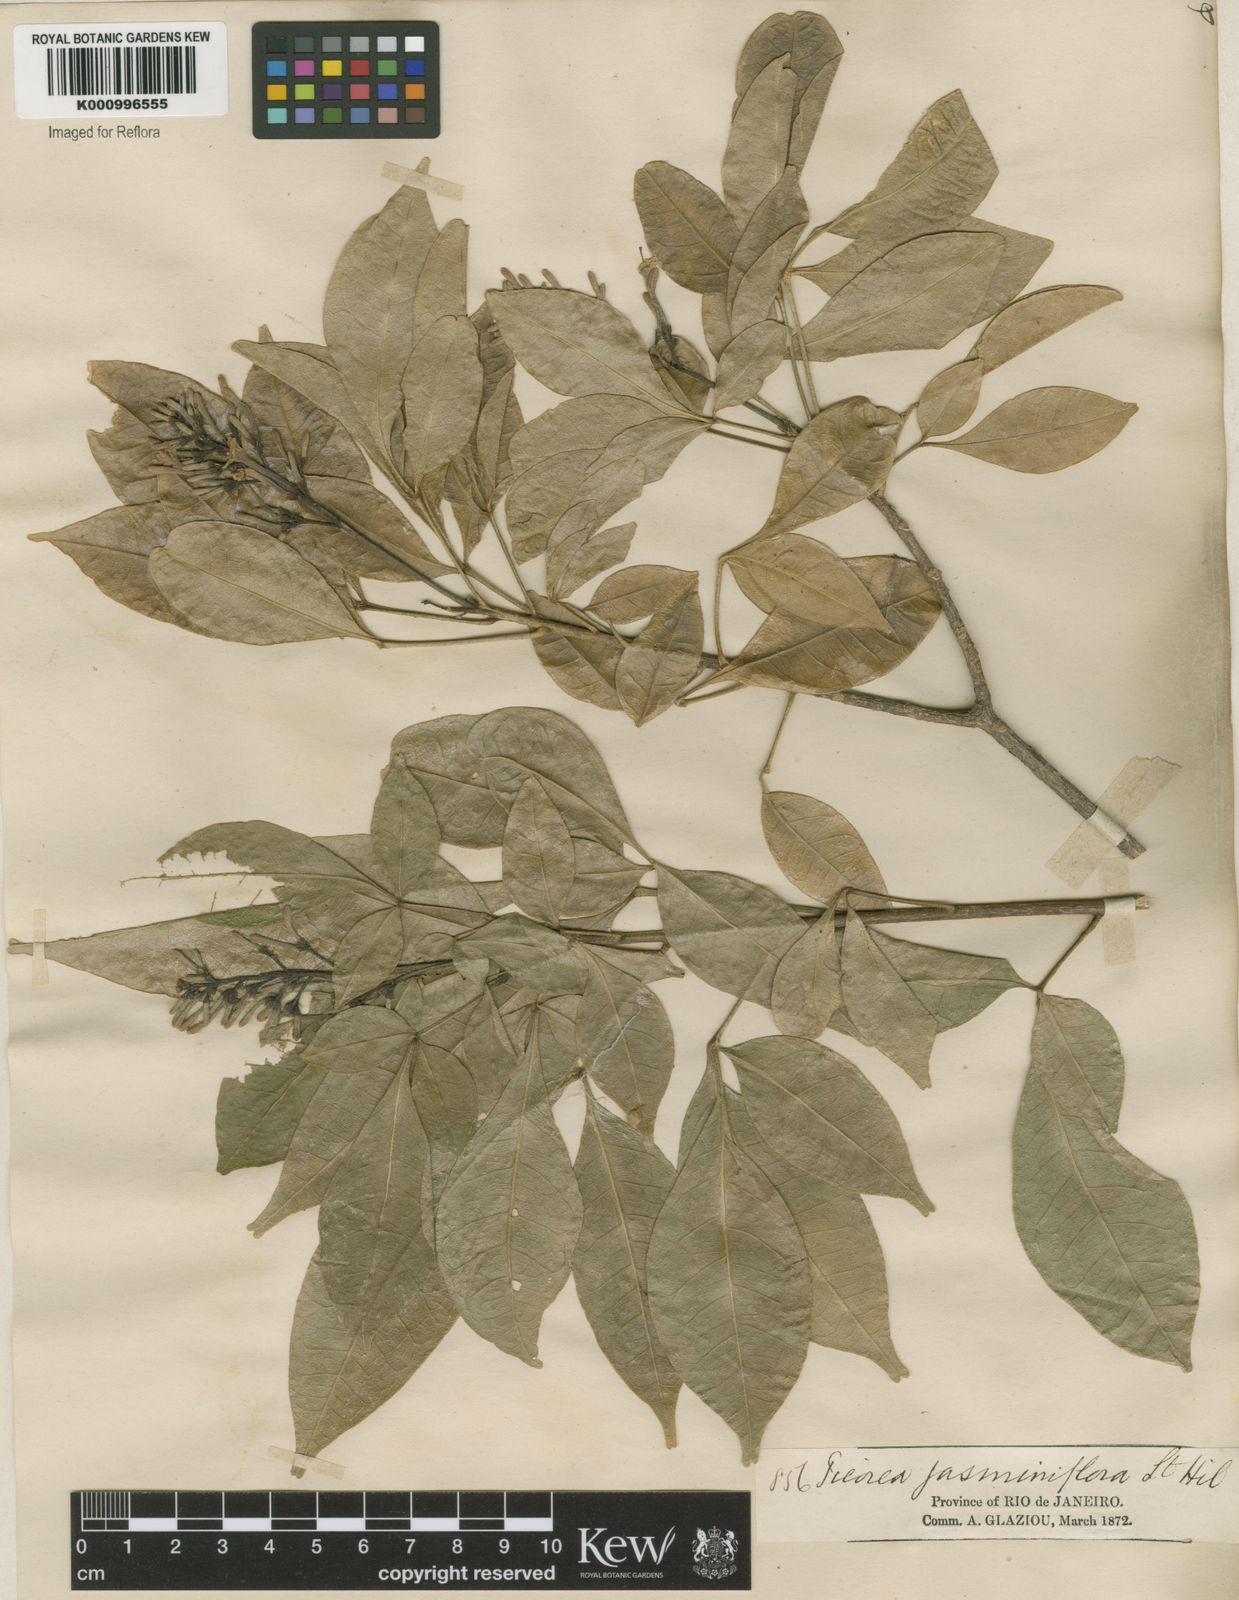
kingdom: Plantae
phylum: Tracheophyta
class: Magnoliopsida
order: Sapindales
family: Rutaceae
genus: Galipea
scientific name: Galipea
